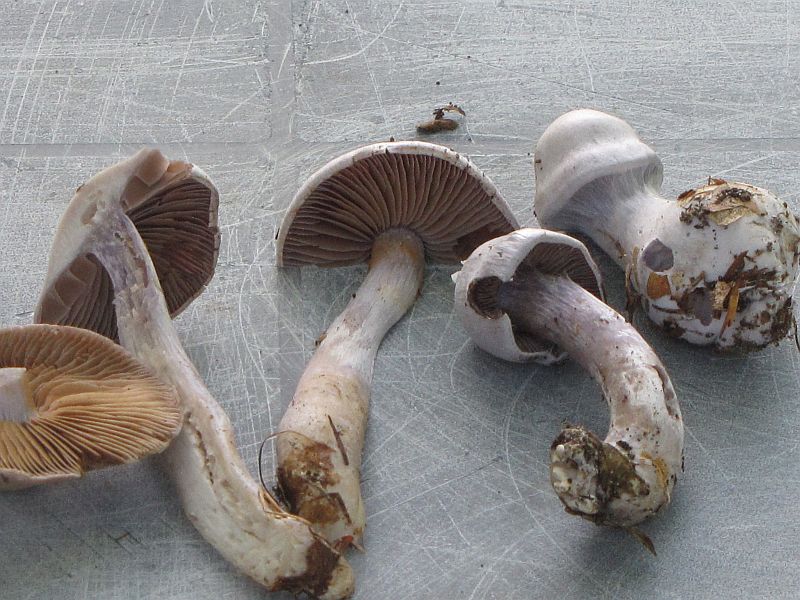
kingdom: Fungi
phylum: Basidiomycota
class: Agaricomycetes
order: Agaricales
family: Cortinariaceae
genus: Cortinarius
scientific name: Cortinarius alboviolaceus
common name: lysviolet slørhat
